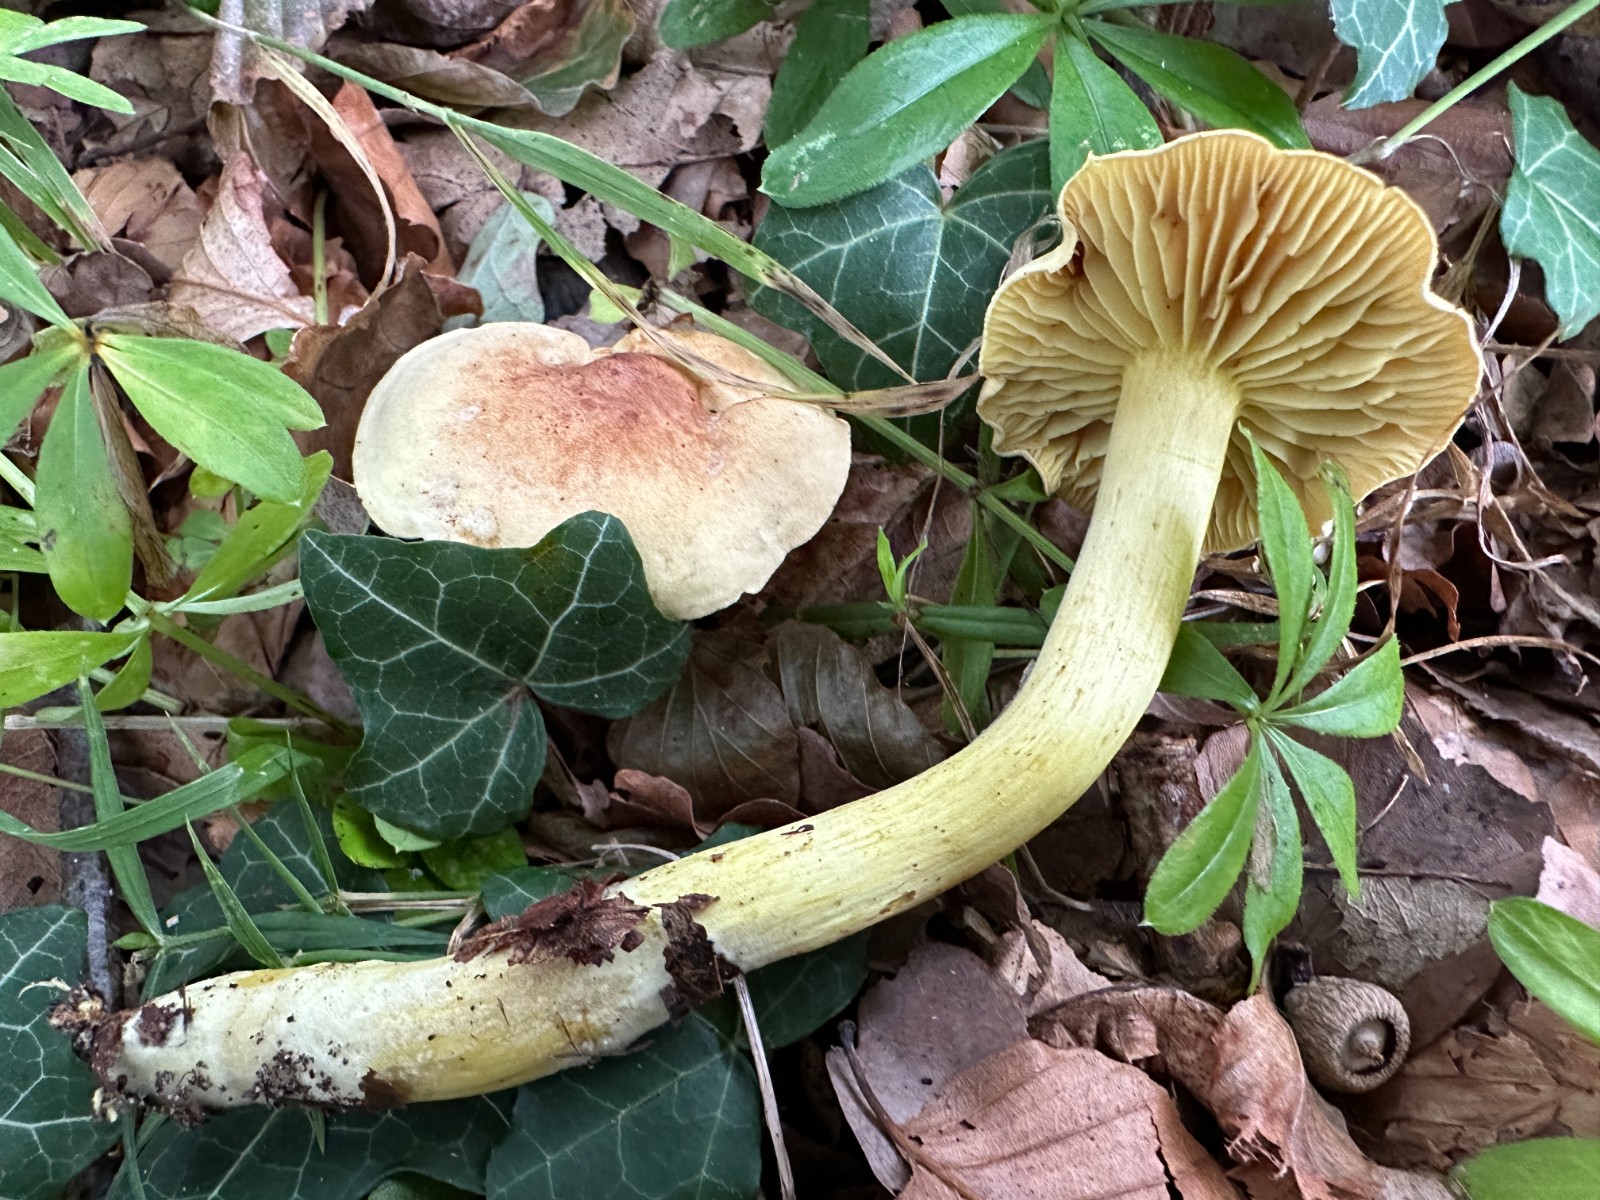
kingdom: Fungi
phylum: Basidiomycota
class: Agaricomycetes
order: Agaricales
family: Tricholomataceae
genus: Tricholoma
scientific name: Tricholoma sulphureum
